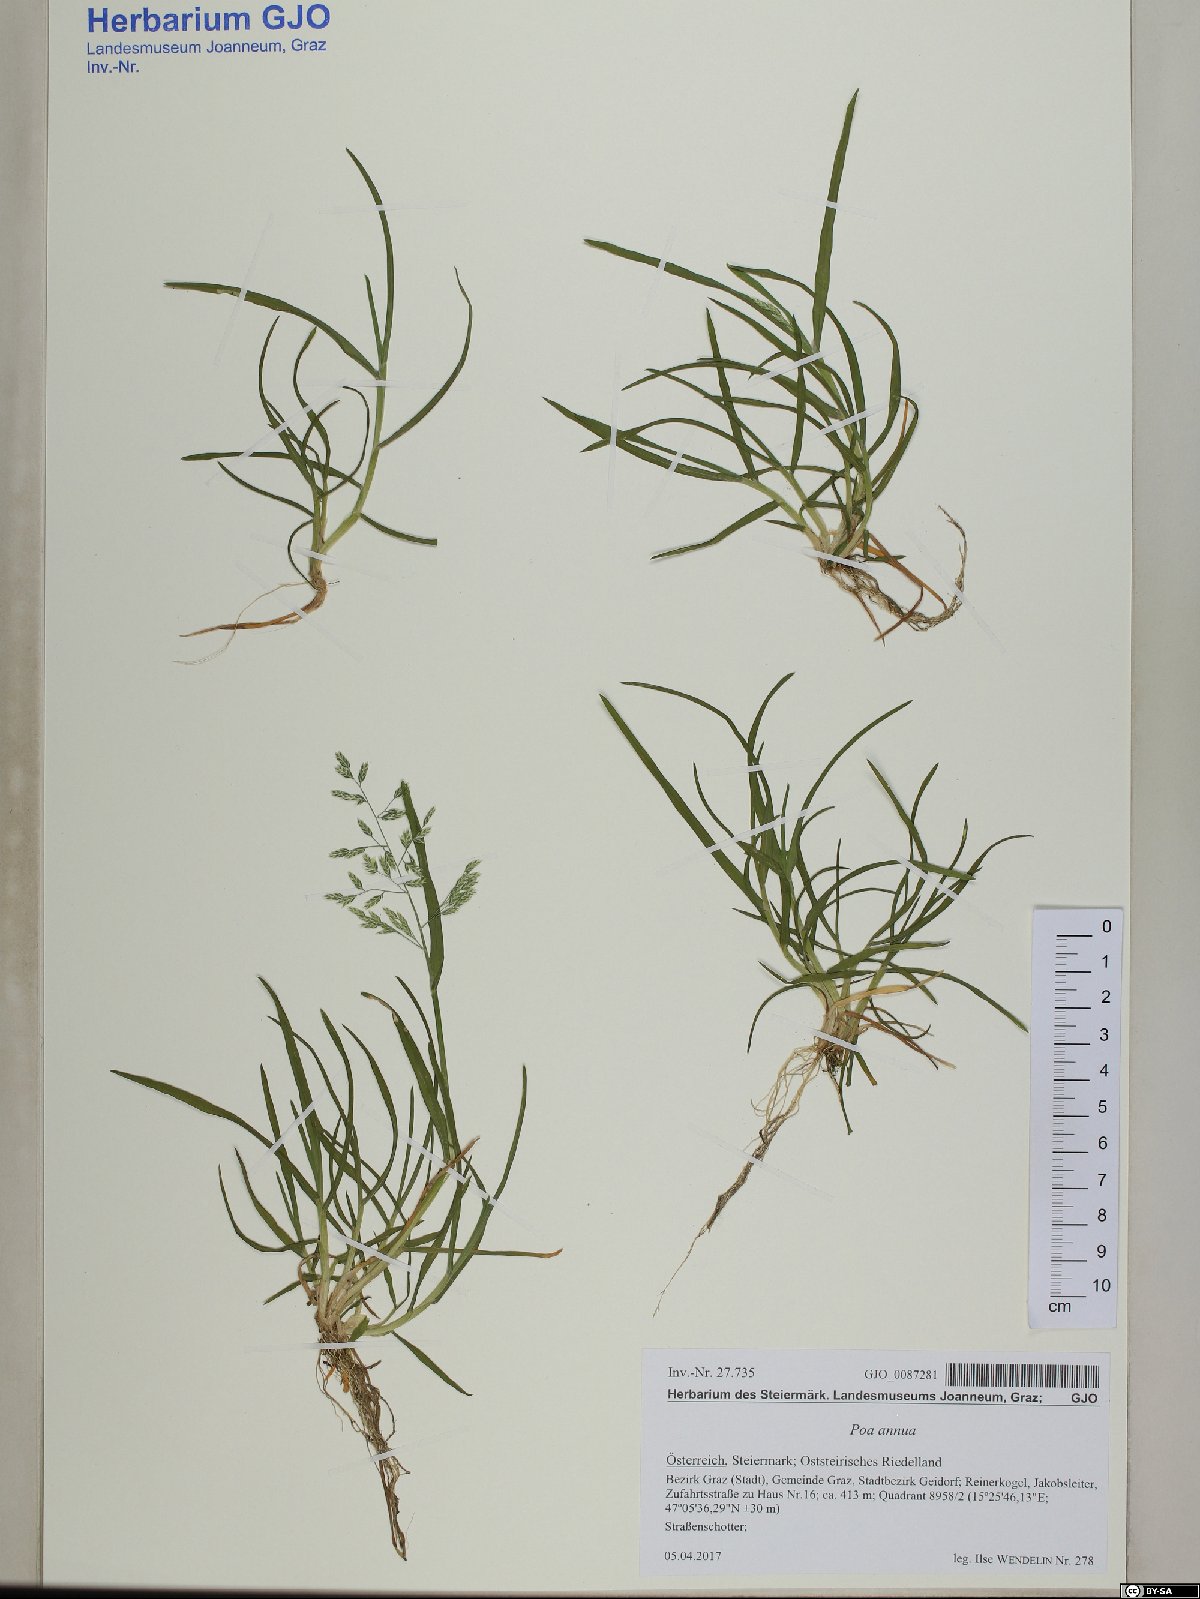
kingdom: Plantae
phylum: Tracheophyta
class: Liliopsida
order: Poales
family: Poaceae
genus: Poa
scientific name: Poa annua
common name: Annual bluegrass
